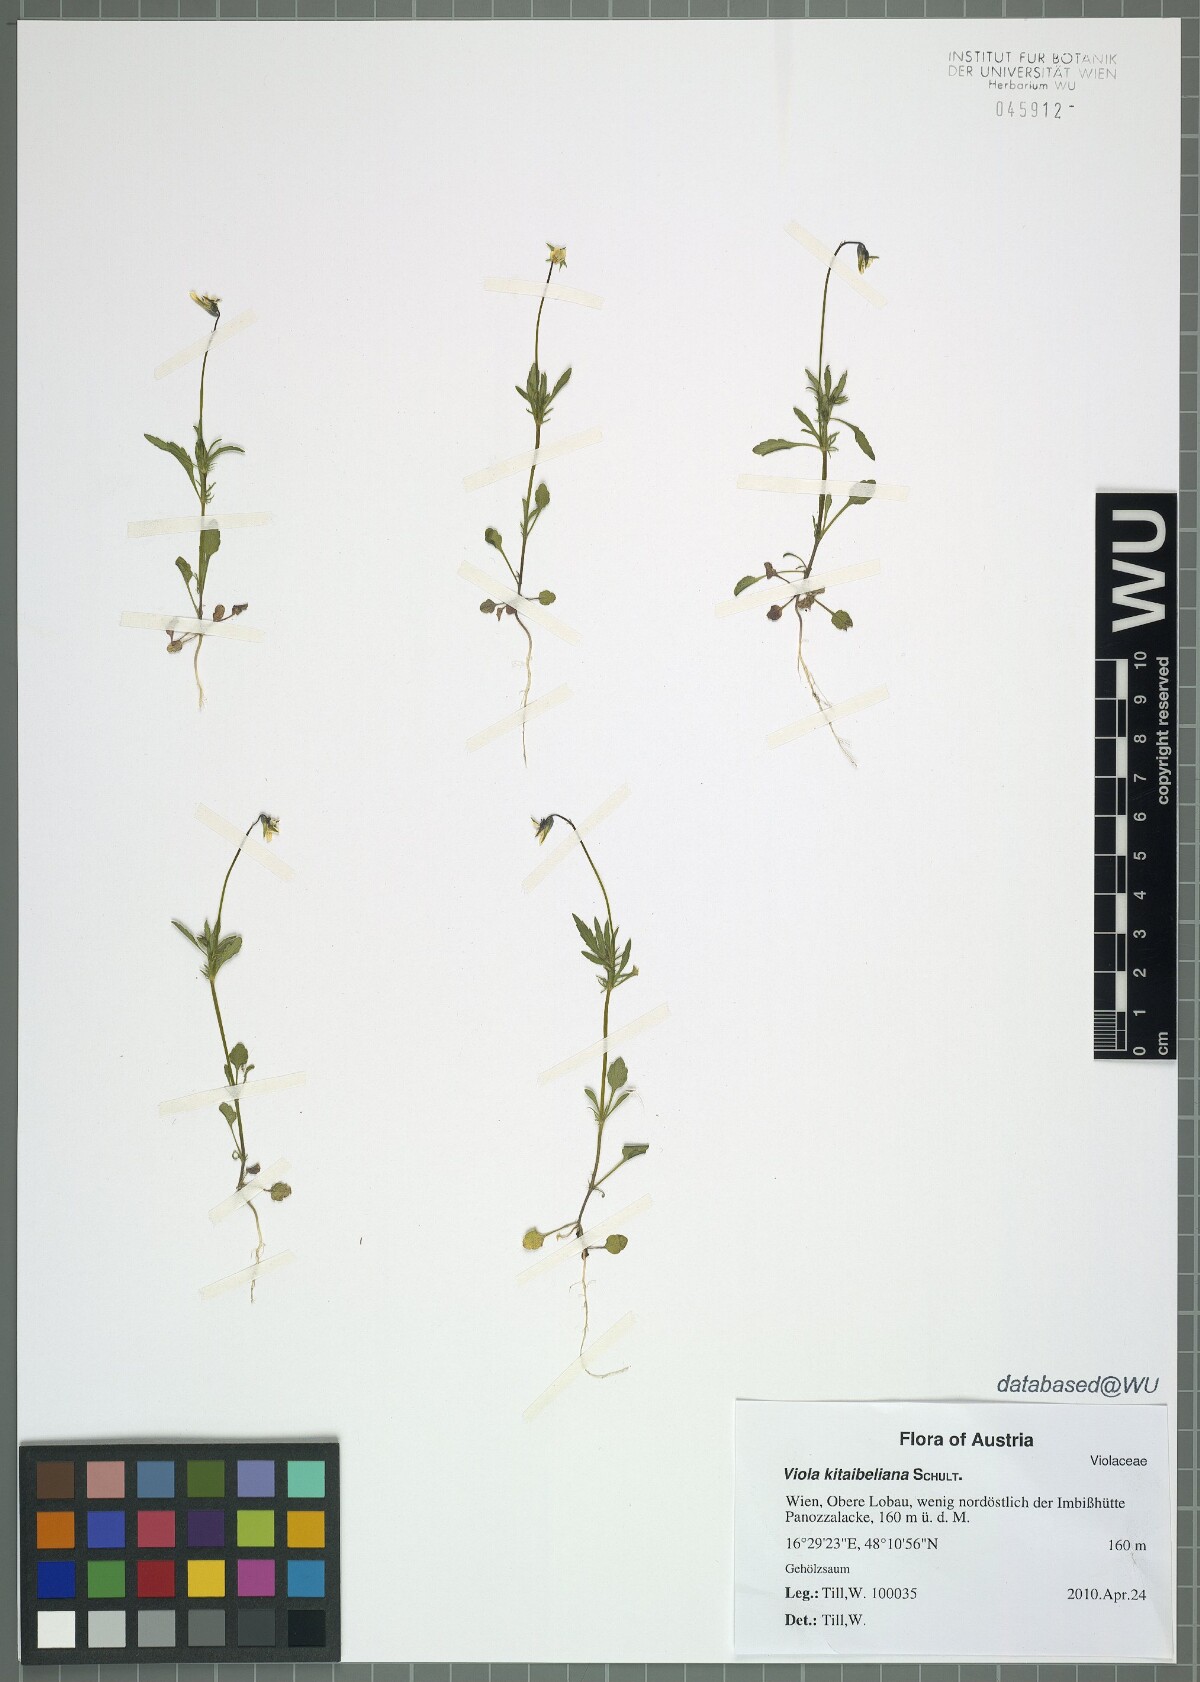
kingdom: Plantae
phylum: Tracheophyta
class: Magnoliopsida
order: Malpighiales
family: Violaceae
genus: Viola
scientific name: Viola kitaibeliana
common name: Dwarf pansy
